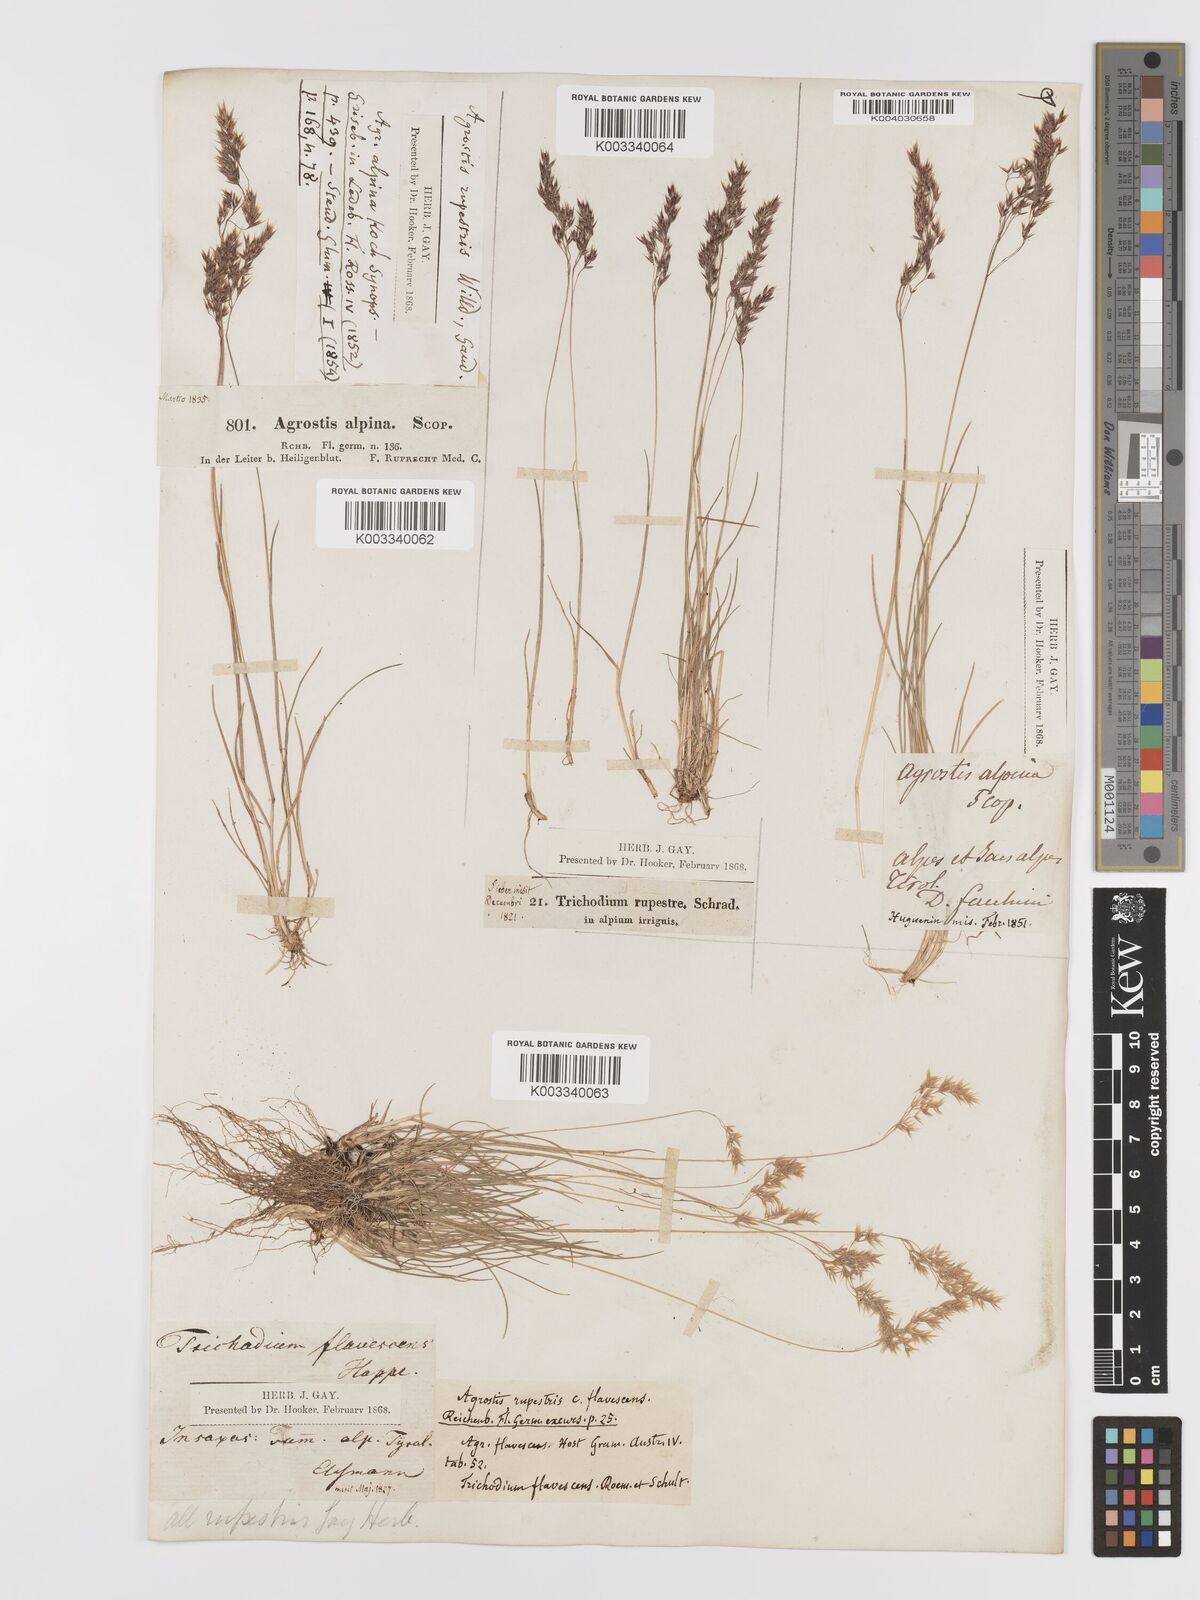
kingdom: Plantae
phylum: Tracheophyta
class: Liliopsida
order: Poales
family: Poaceae
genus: Agrostis
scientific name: Agrostis rupestris
